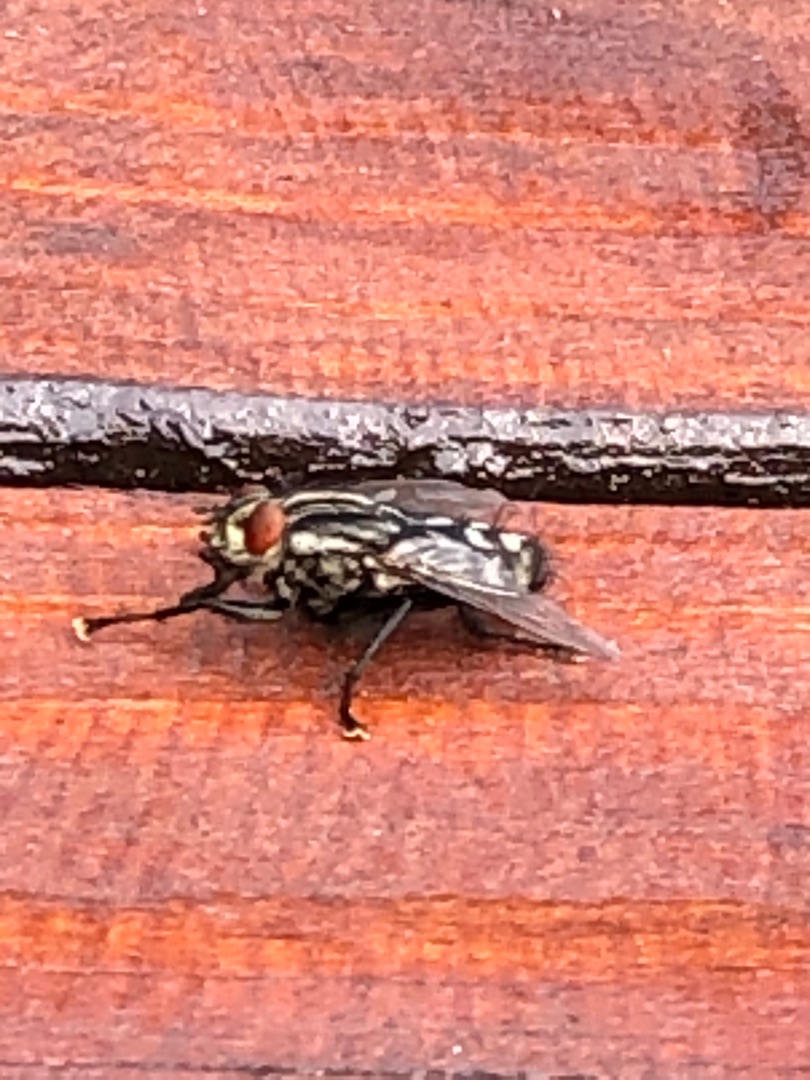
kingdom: Animalia
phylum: Arthropoda
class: Insecta
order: Diptera
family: Sarcophagidae
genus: Sarcophaga
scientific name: Sarcophaga
